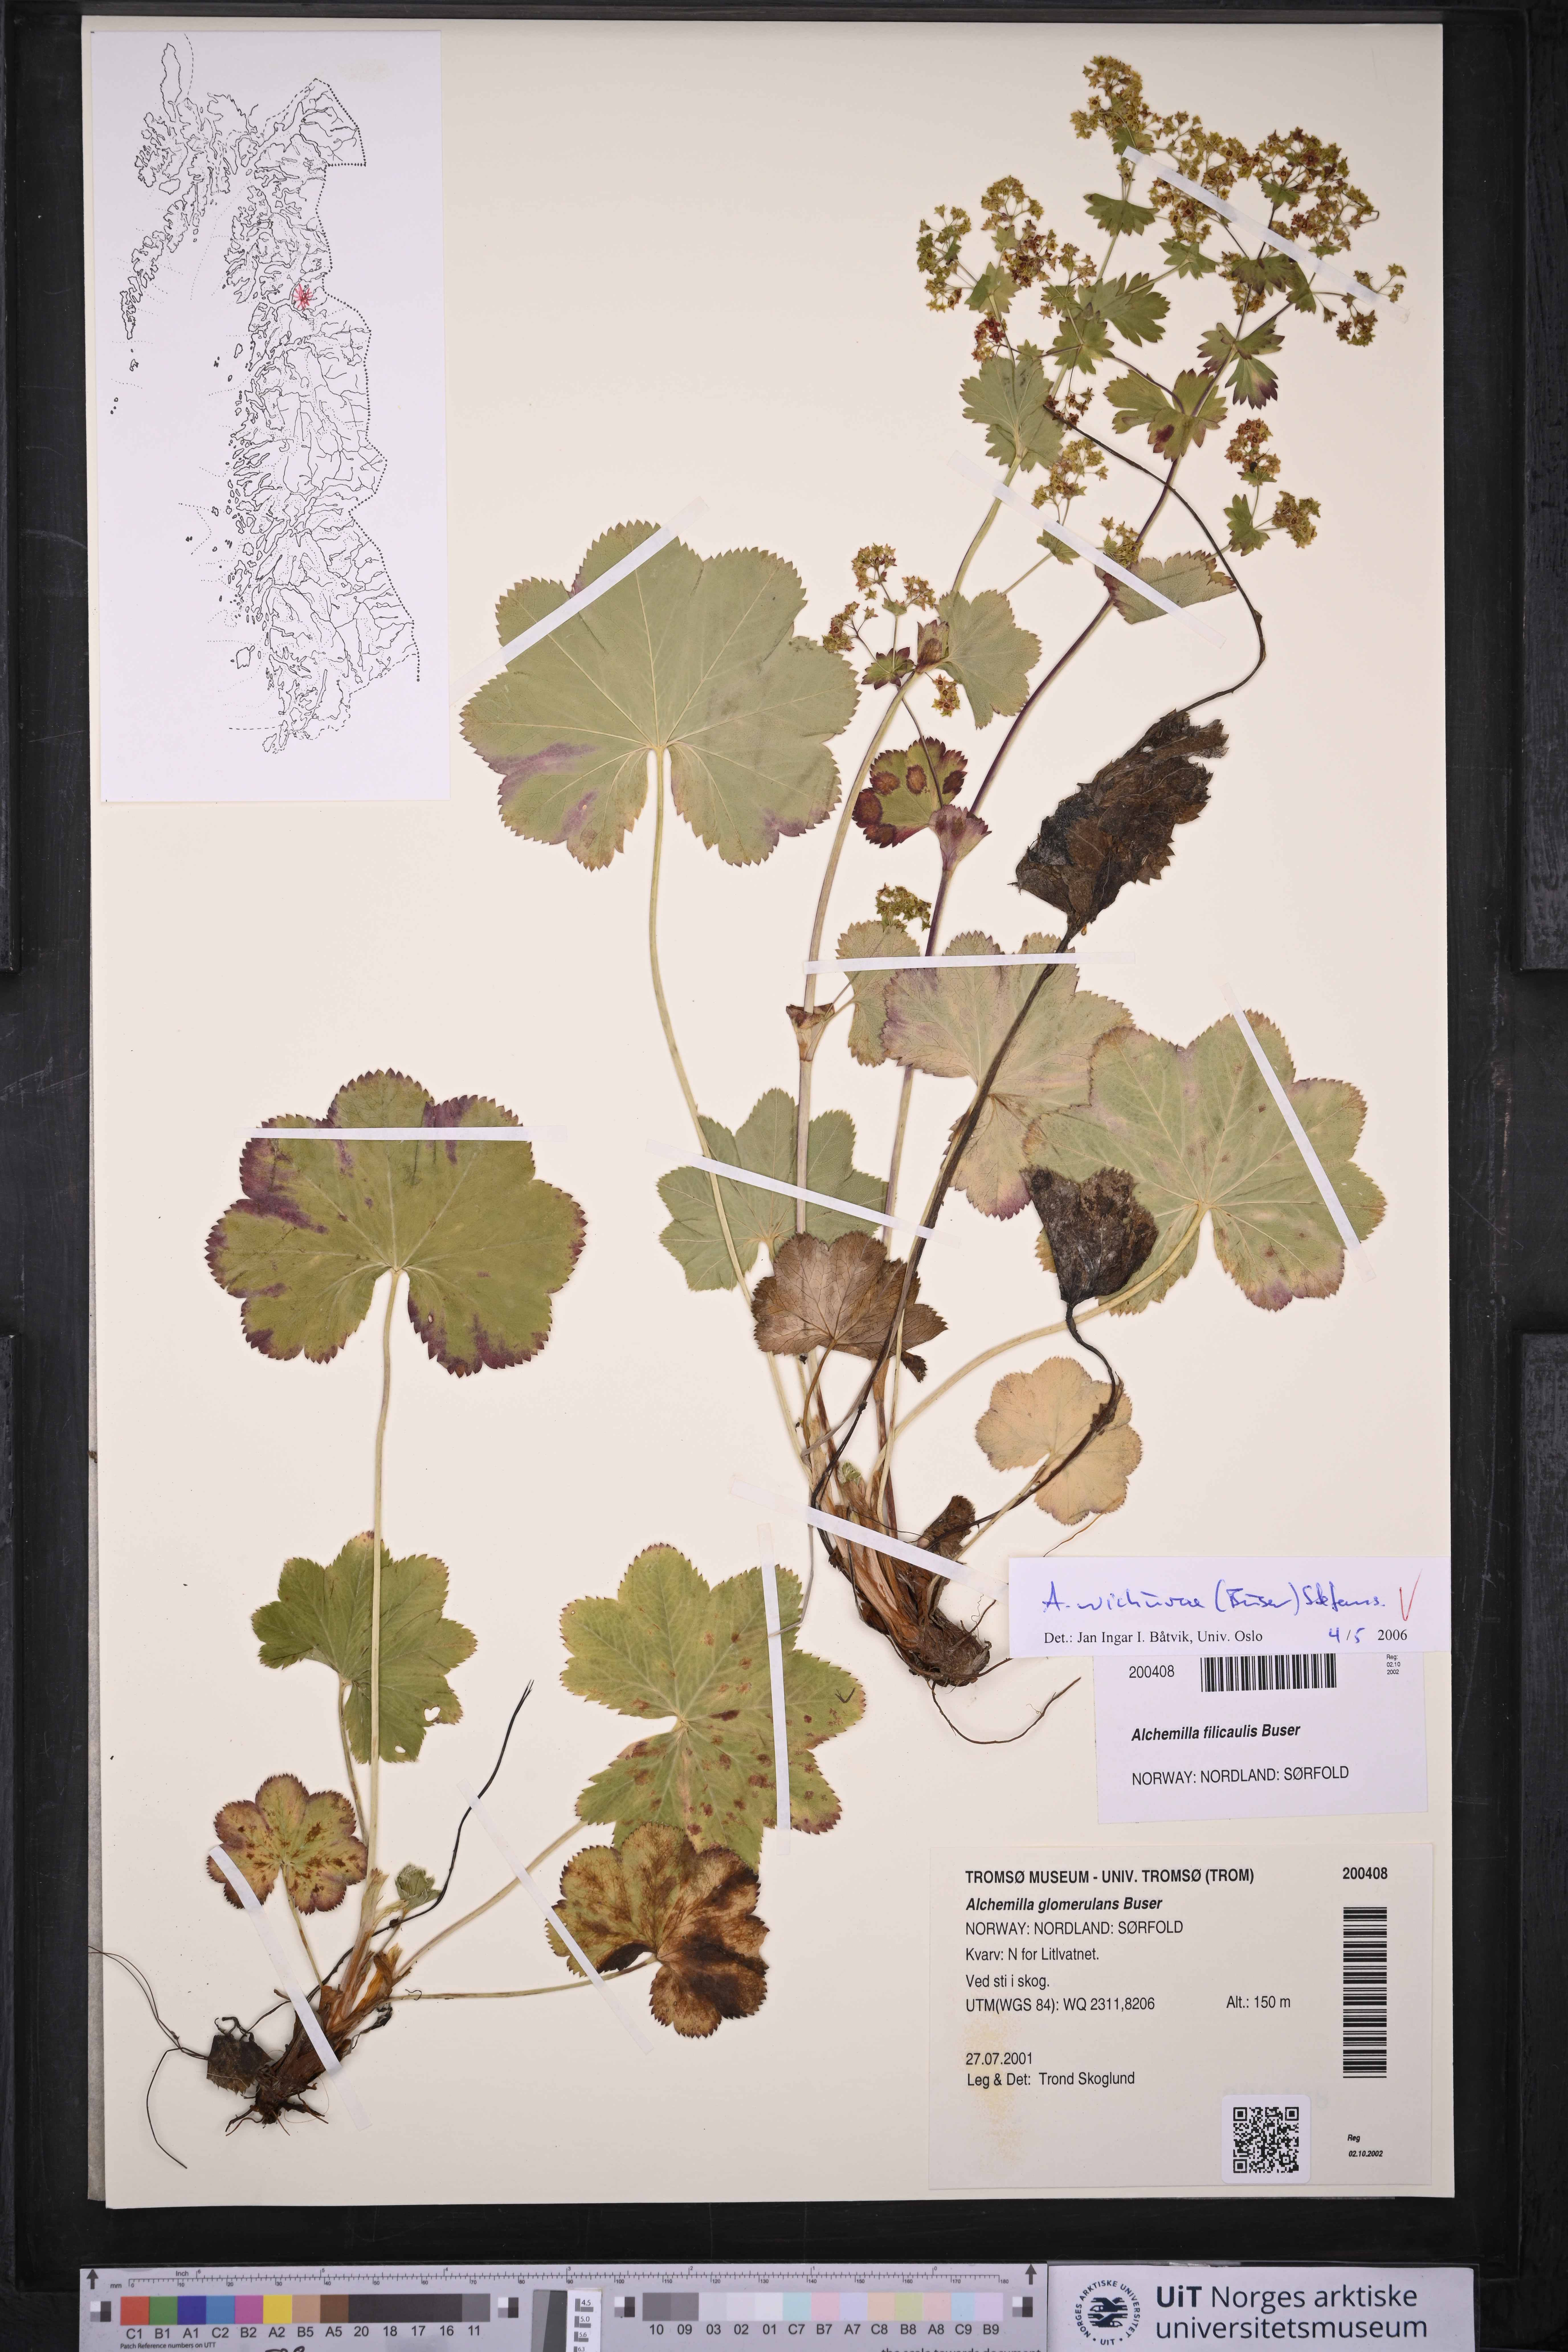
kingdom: Plantae
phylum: Tracheophyta
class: Magnoliopsida
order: Rosales
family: Rosaceae
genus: Alchemilla
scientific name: Alchemilla wichurae
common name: Rock lady's mantle
